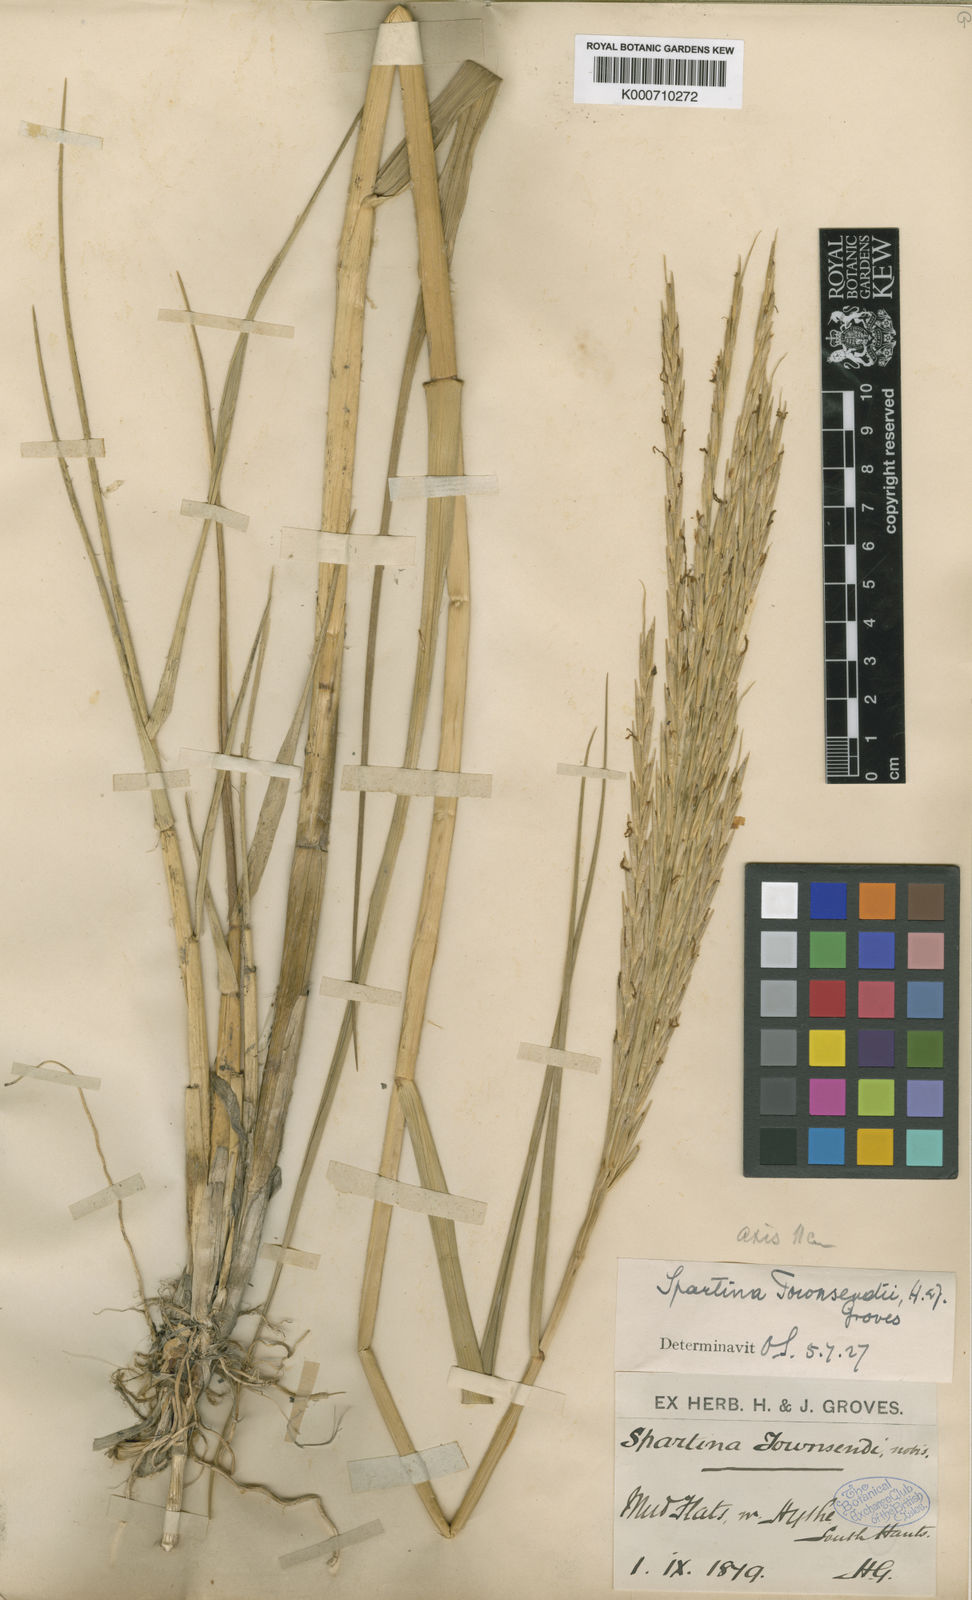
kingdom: Plantae
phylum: Tracheophyta
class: Liliopsida
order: Poales
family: Poaceae
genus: Sporobolus
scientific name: Sporobolus townsendii
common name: Townsend's cordgrass
